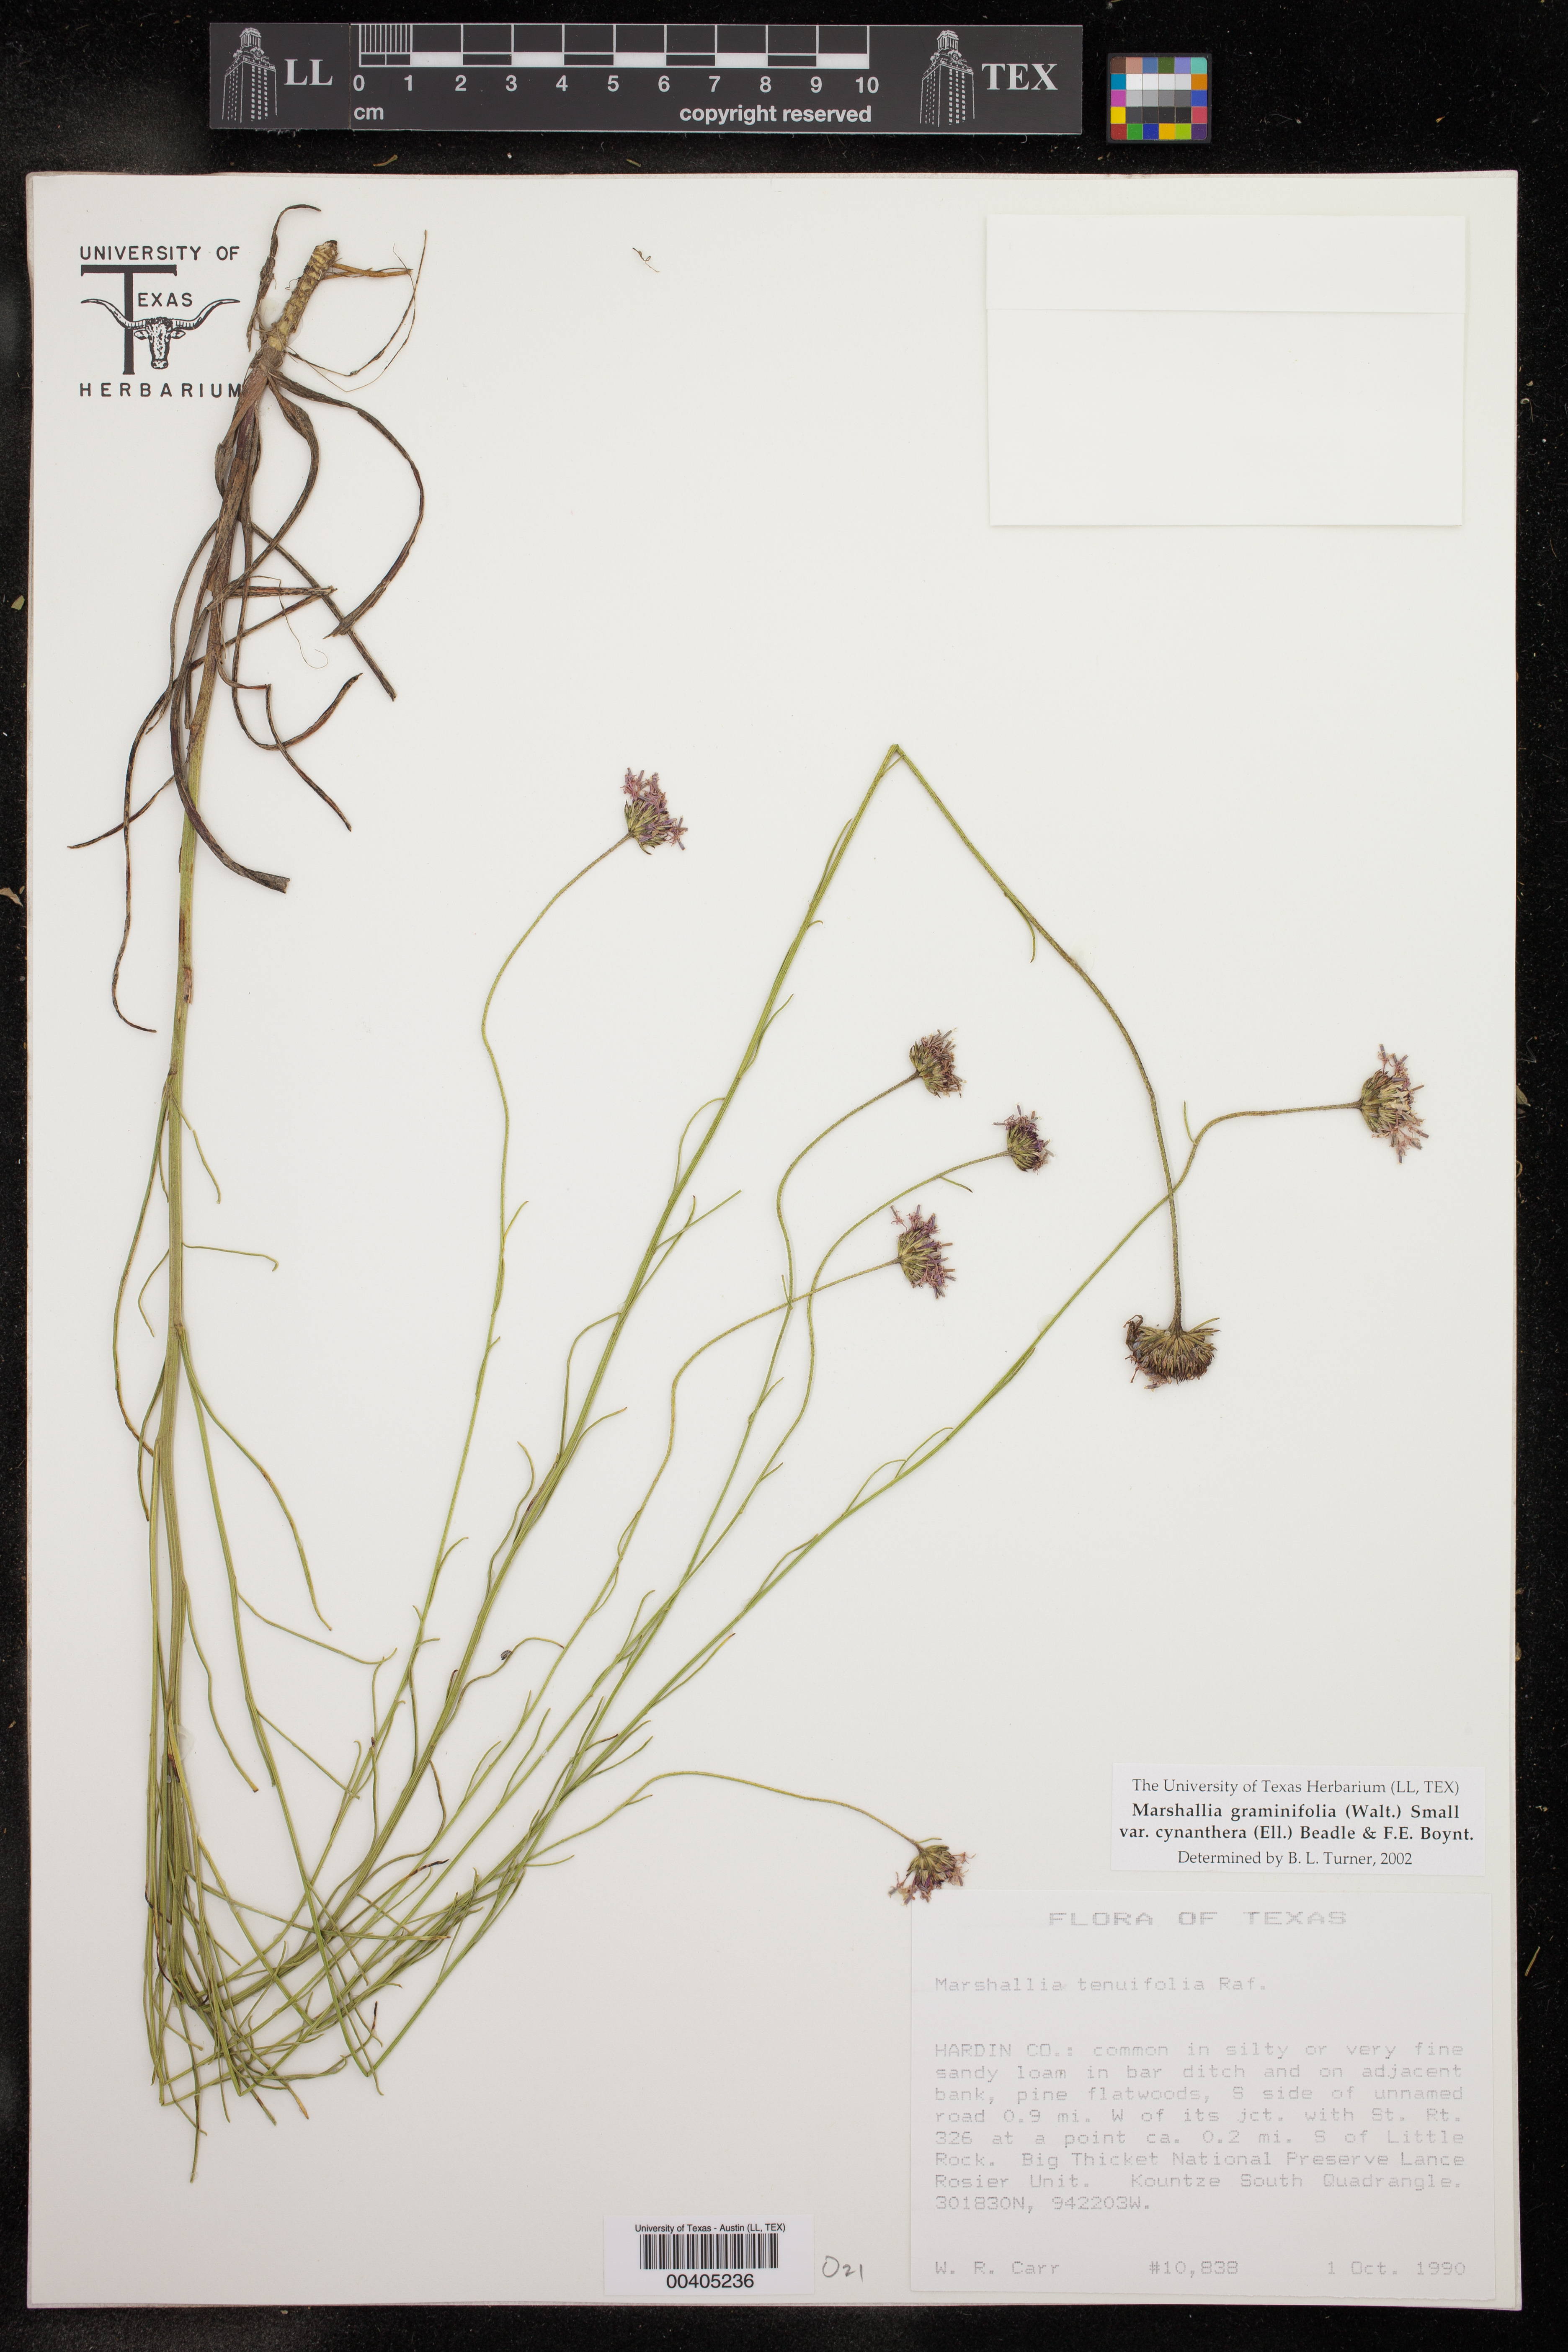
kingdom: Plantae
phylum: Tracheophyta
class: Magnoliopsida
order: Asterales
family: Asteraceae
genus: Vernonia
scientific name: Vernonia angustifolia
